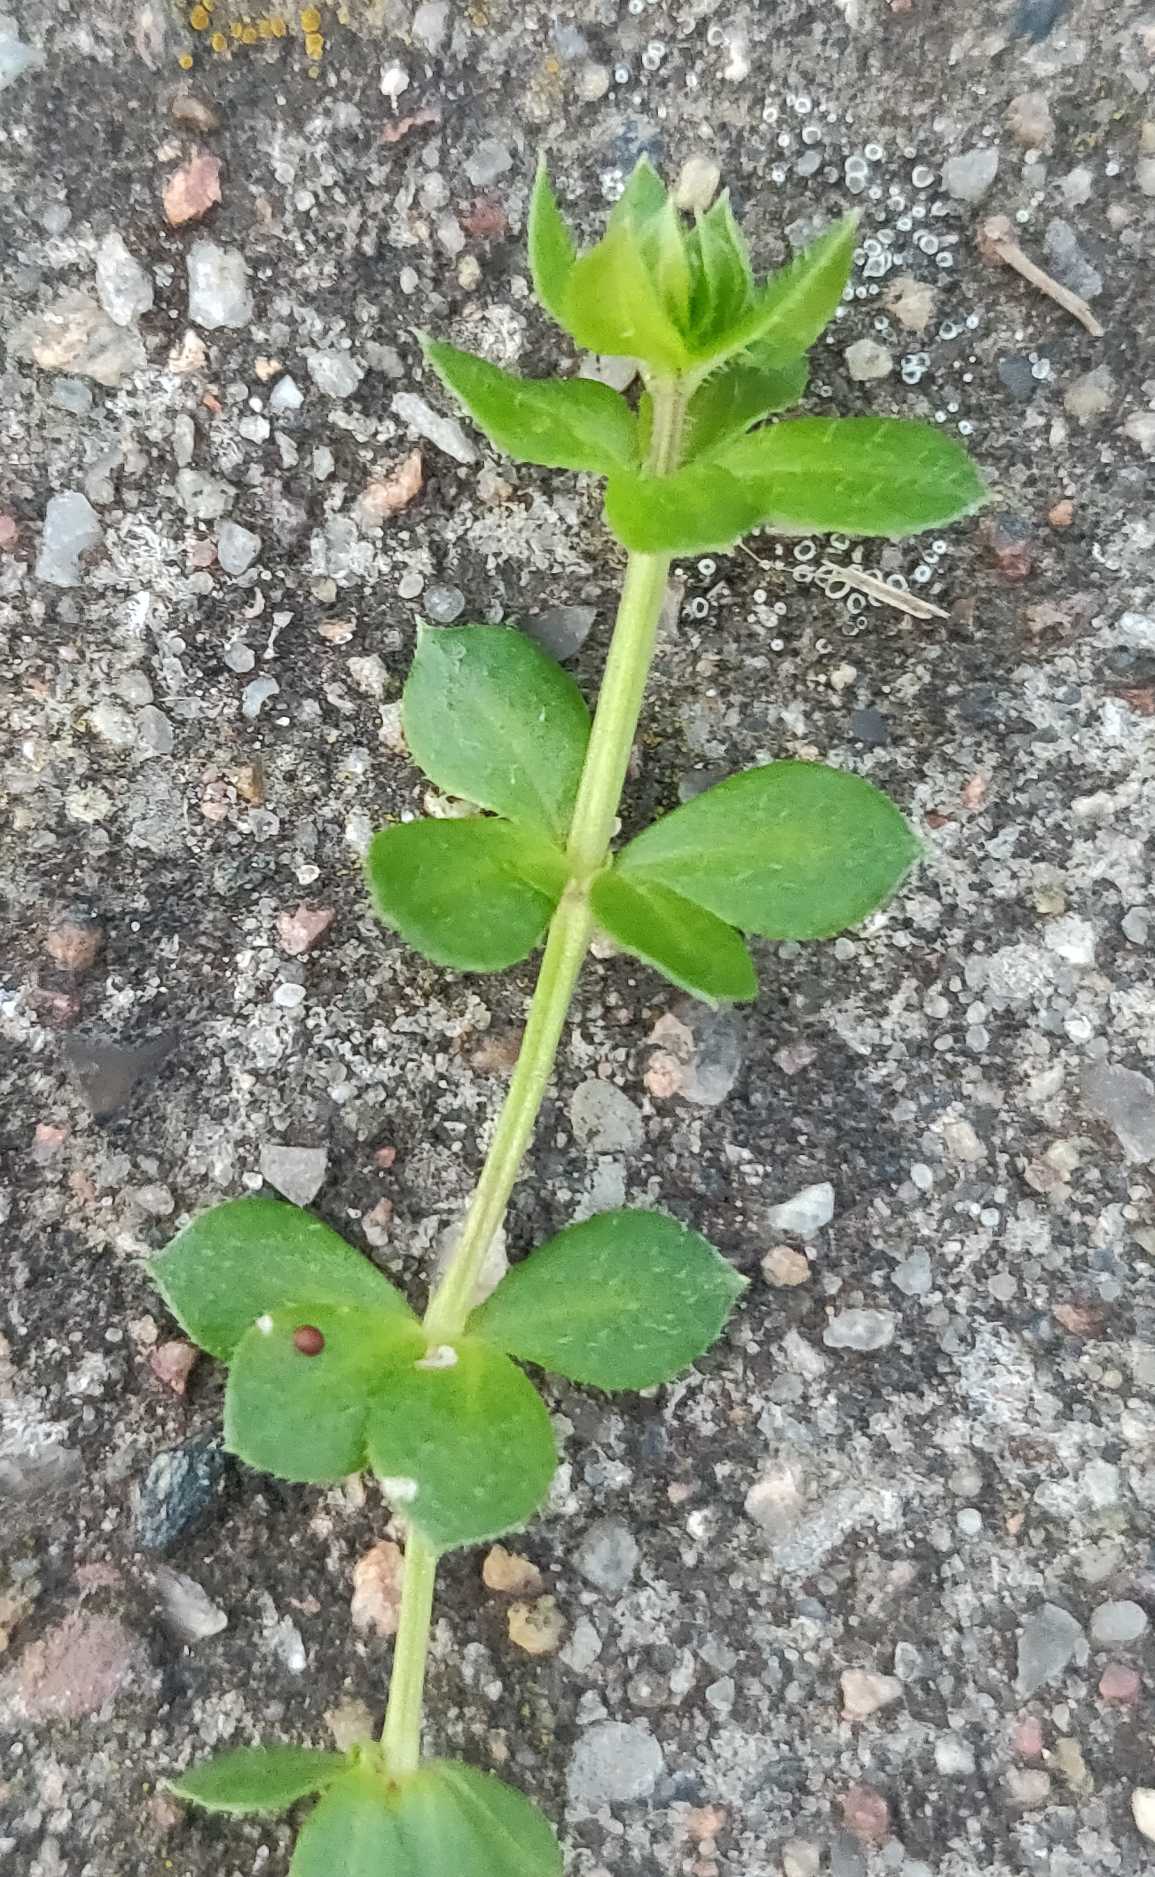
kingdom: Plantae
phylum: Tracheophyta
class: Magnoliopsida
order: Gentianales
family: Rubiaceae
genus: Sherardia
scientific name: Sherardia arvensis
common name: Blåstjerne
